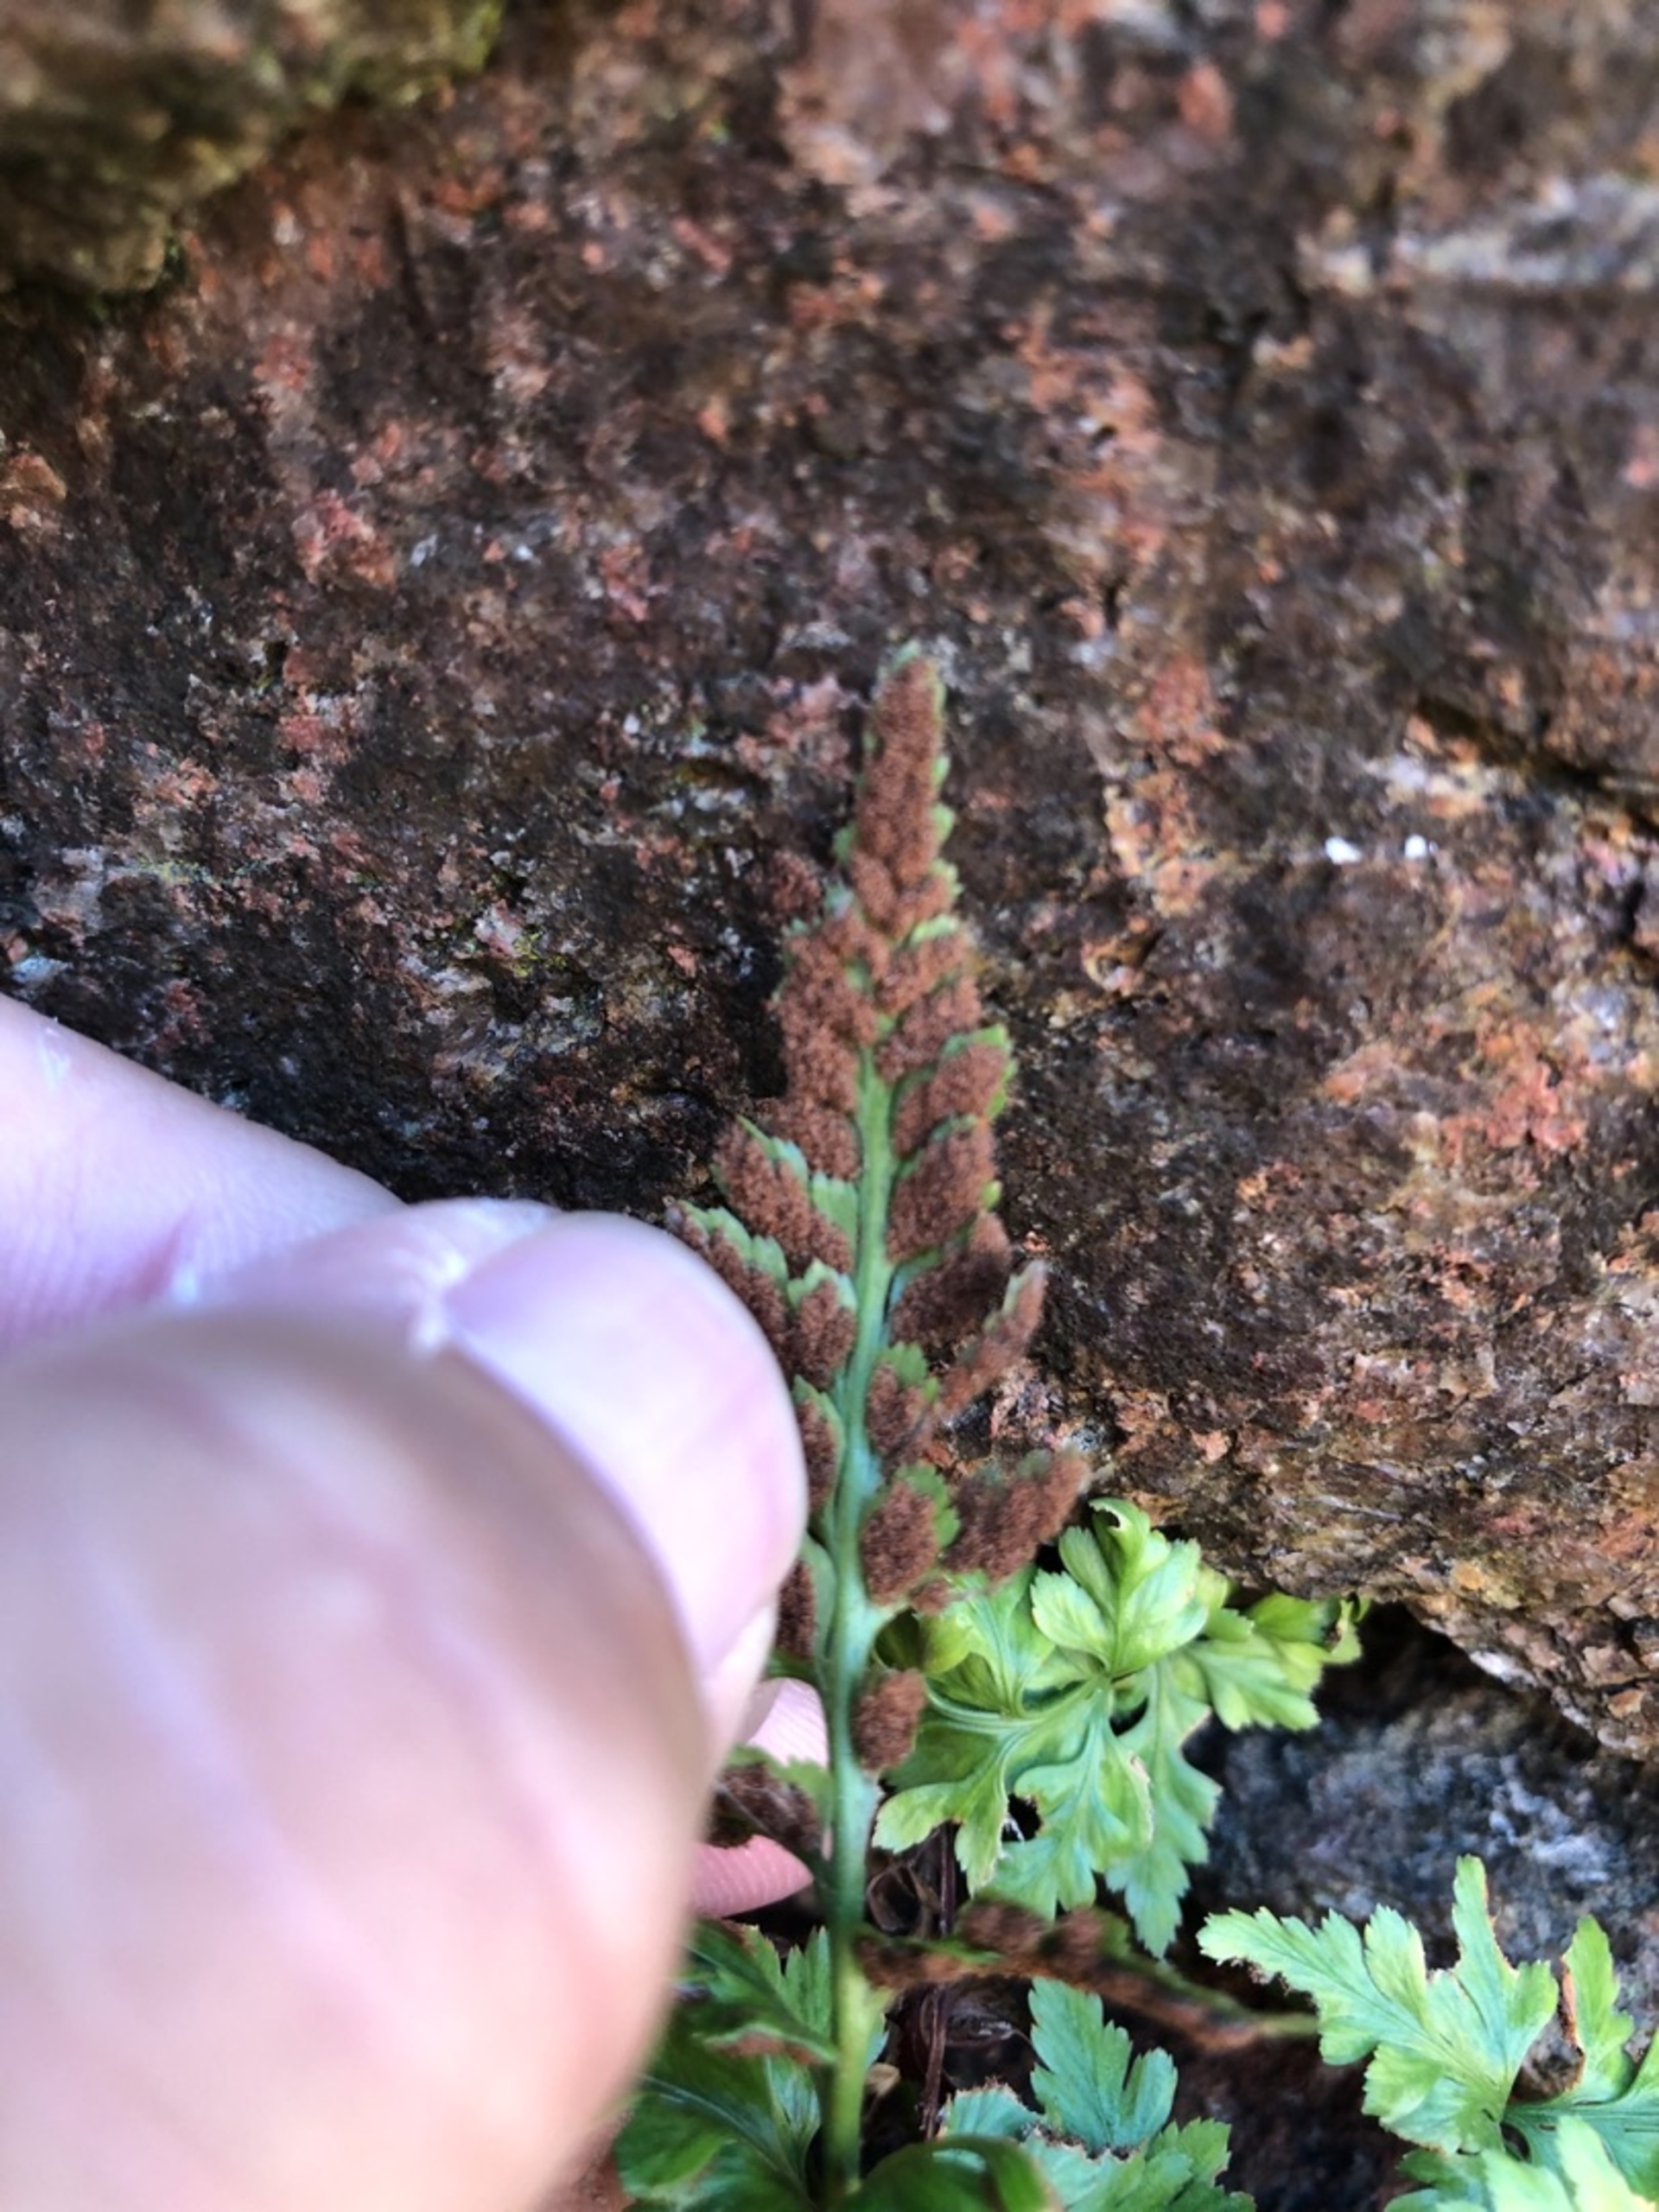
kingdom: Plantae
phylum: Tracheophyta
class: Polypodiopsida
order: Polypodiales
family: Aspleniaceae
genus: Asplenium
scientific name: Asplenium adiantum-nigrum
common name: Sort radeløv
